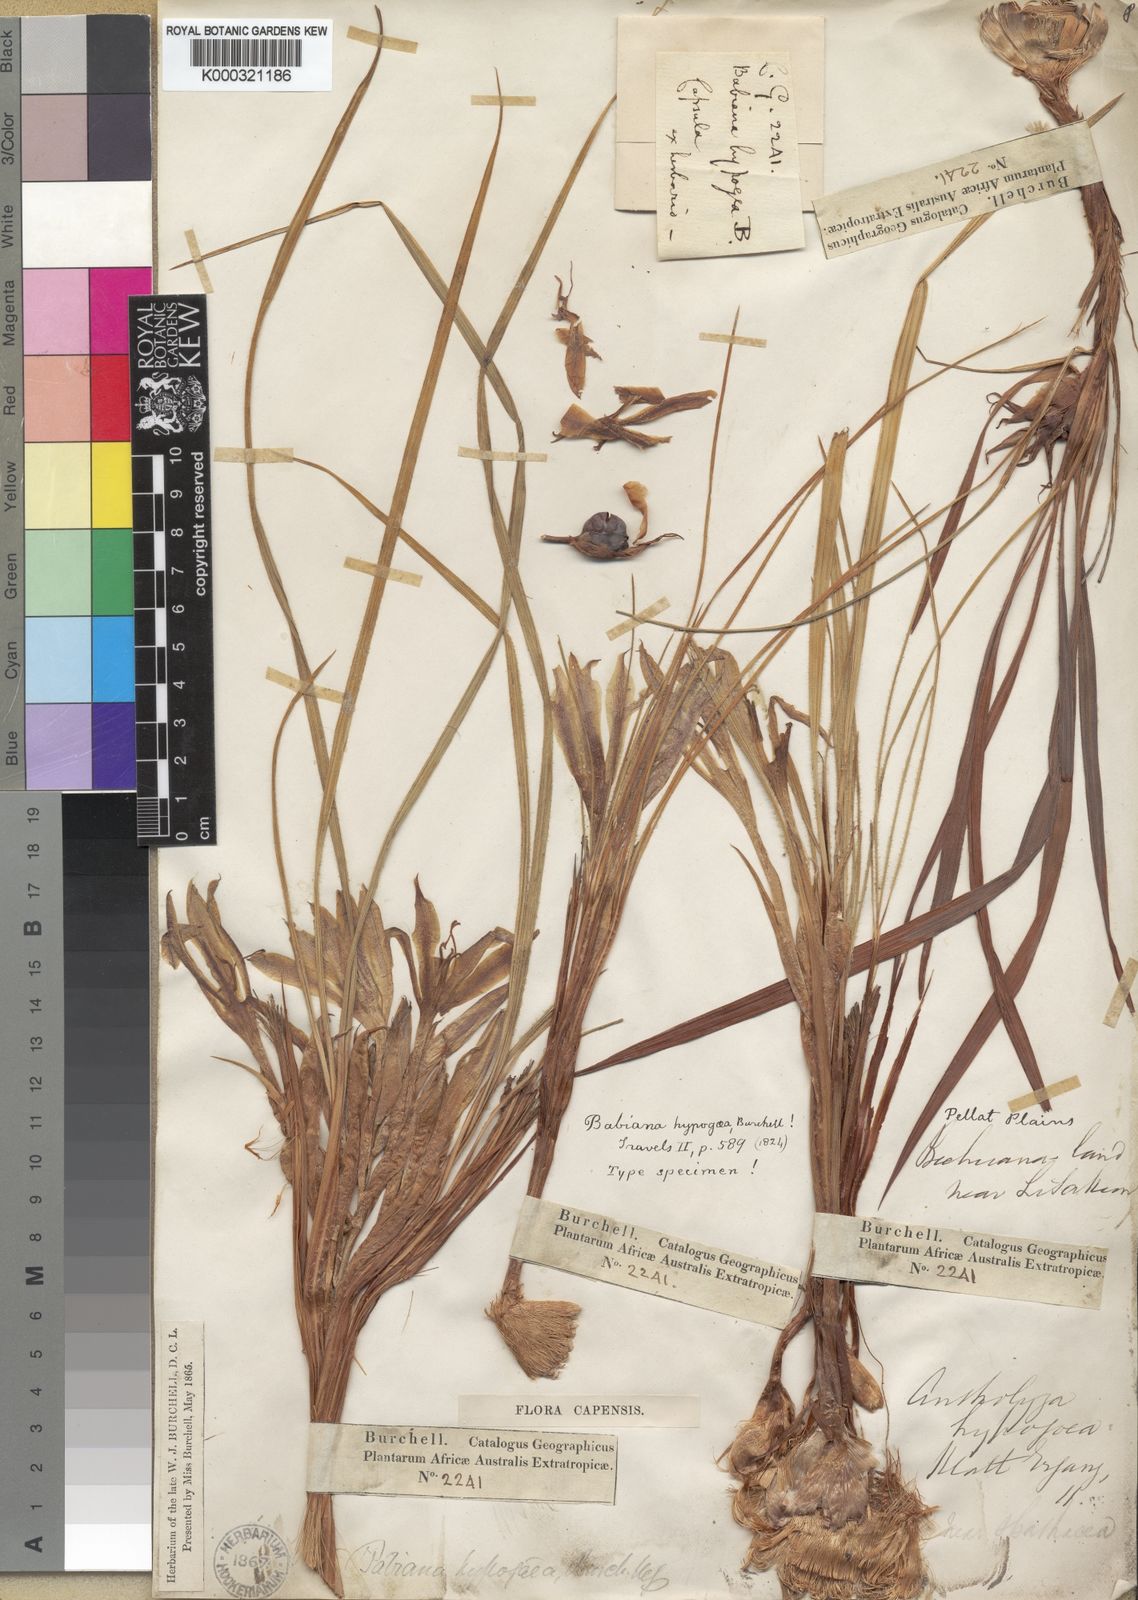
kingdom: Plantae
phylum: Tracheophyta
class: Liliopsida
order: Asparagales
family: Iridaceae
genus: Babiana
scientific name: Babiana hypogaea
